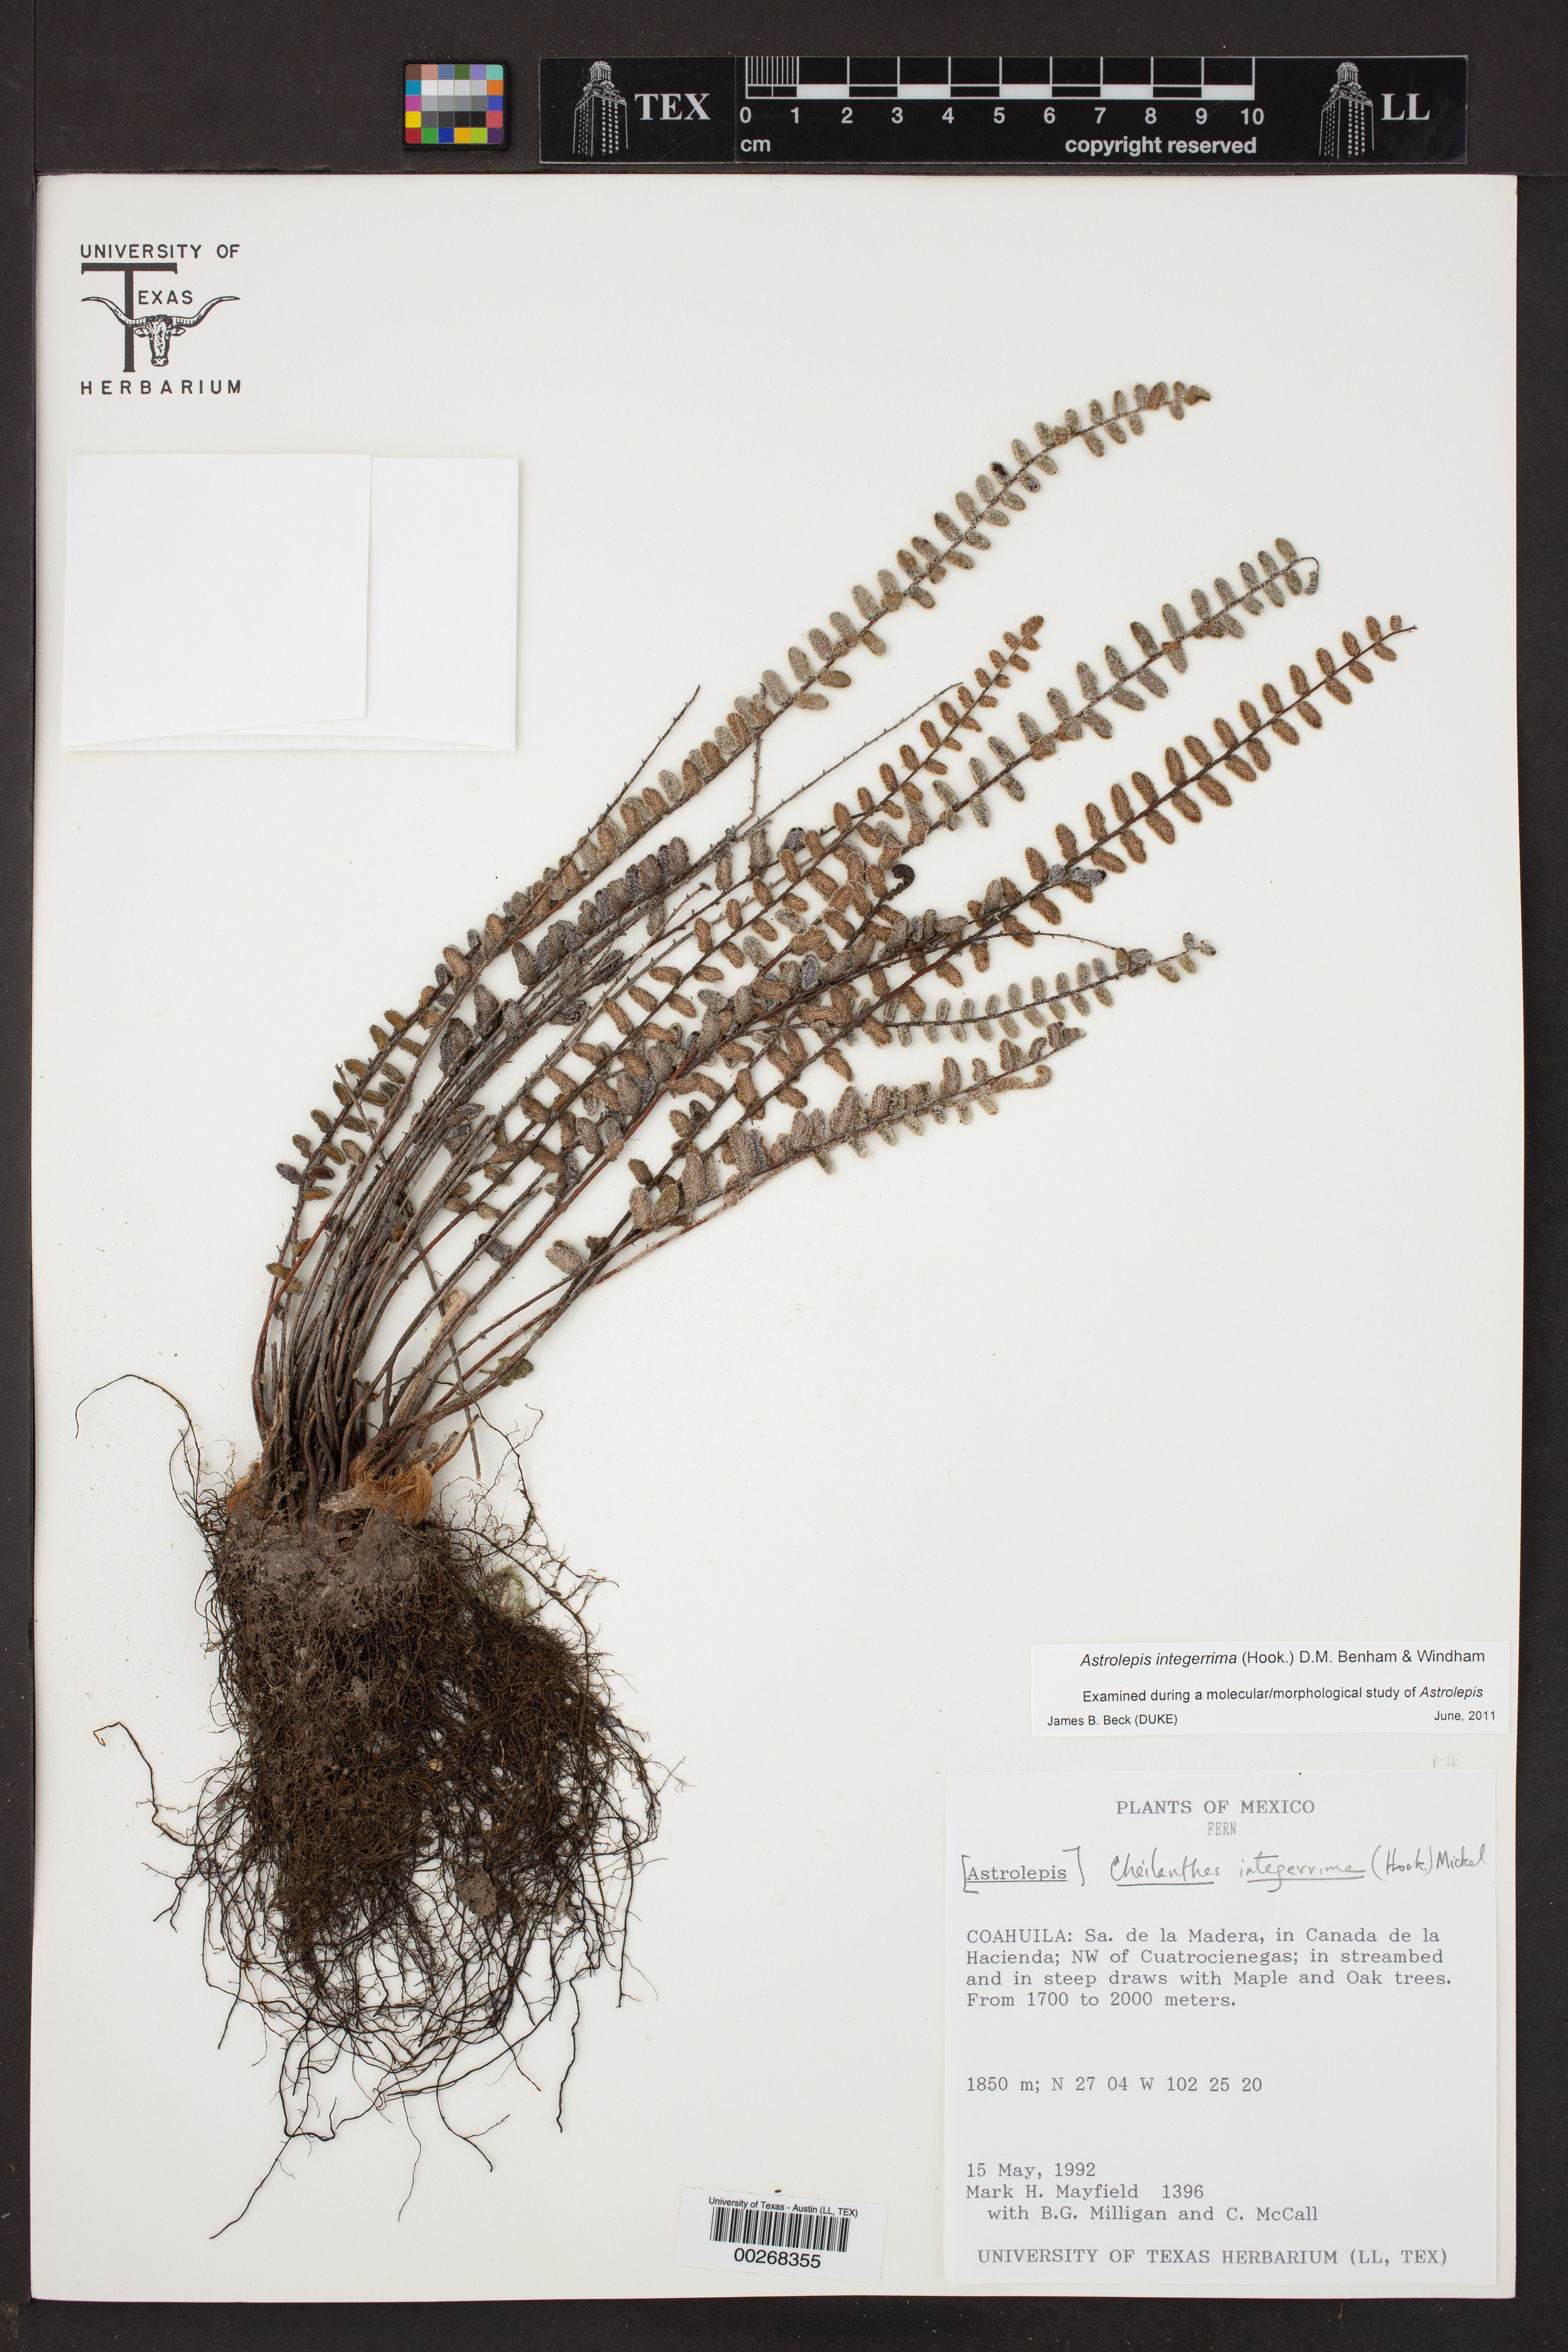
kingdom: Plantae
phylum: Tracheophyta
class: Polypodiopsida
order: Polypodiales
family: Pteridaceae
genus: Astrolepis
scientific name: Astrolepis integerrima
